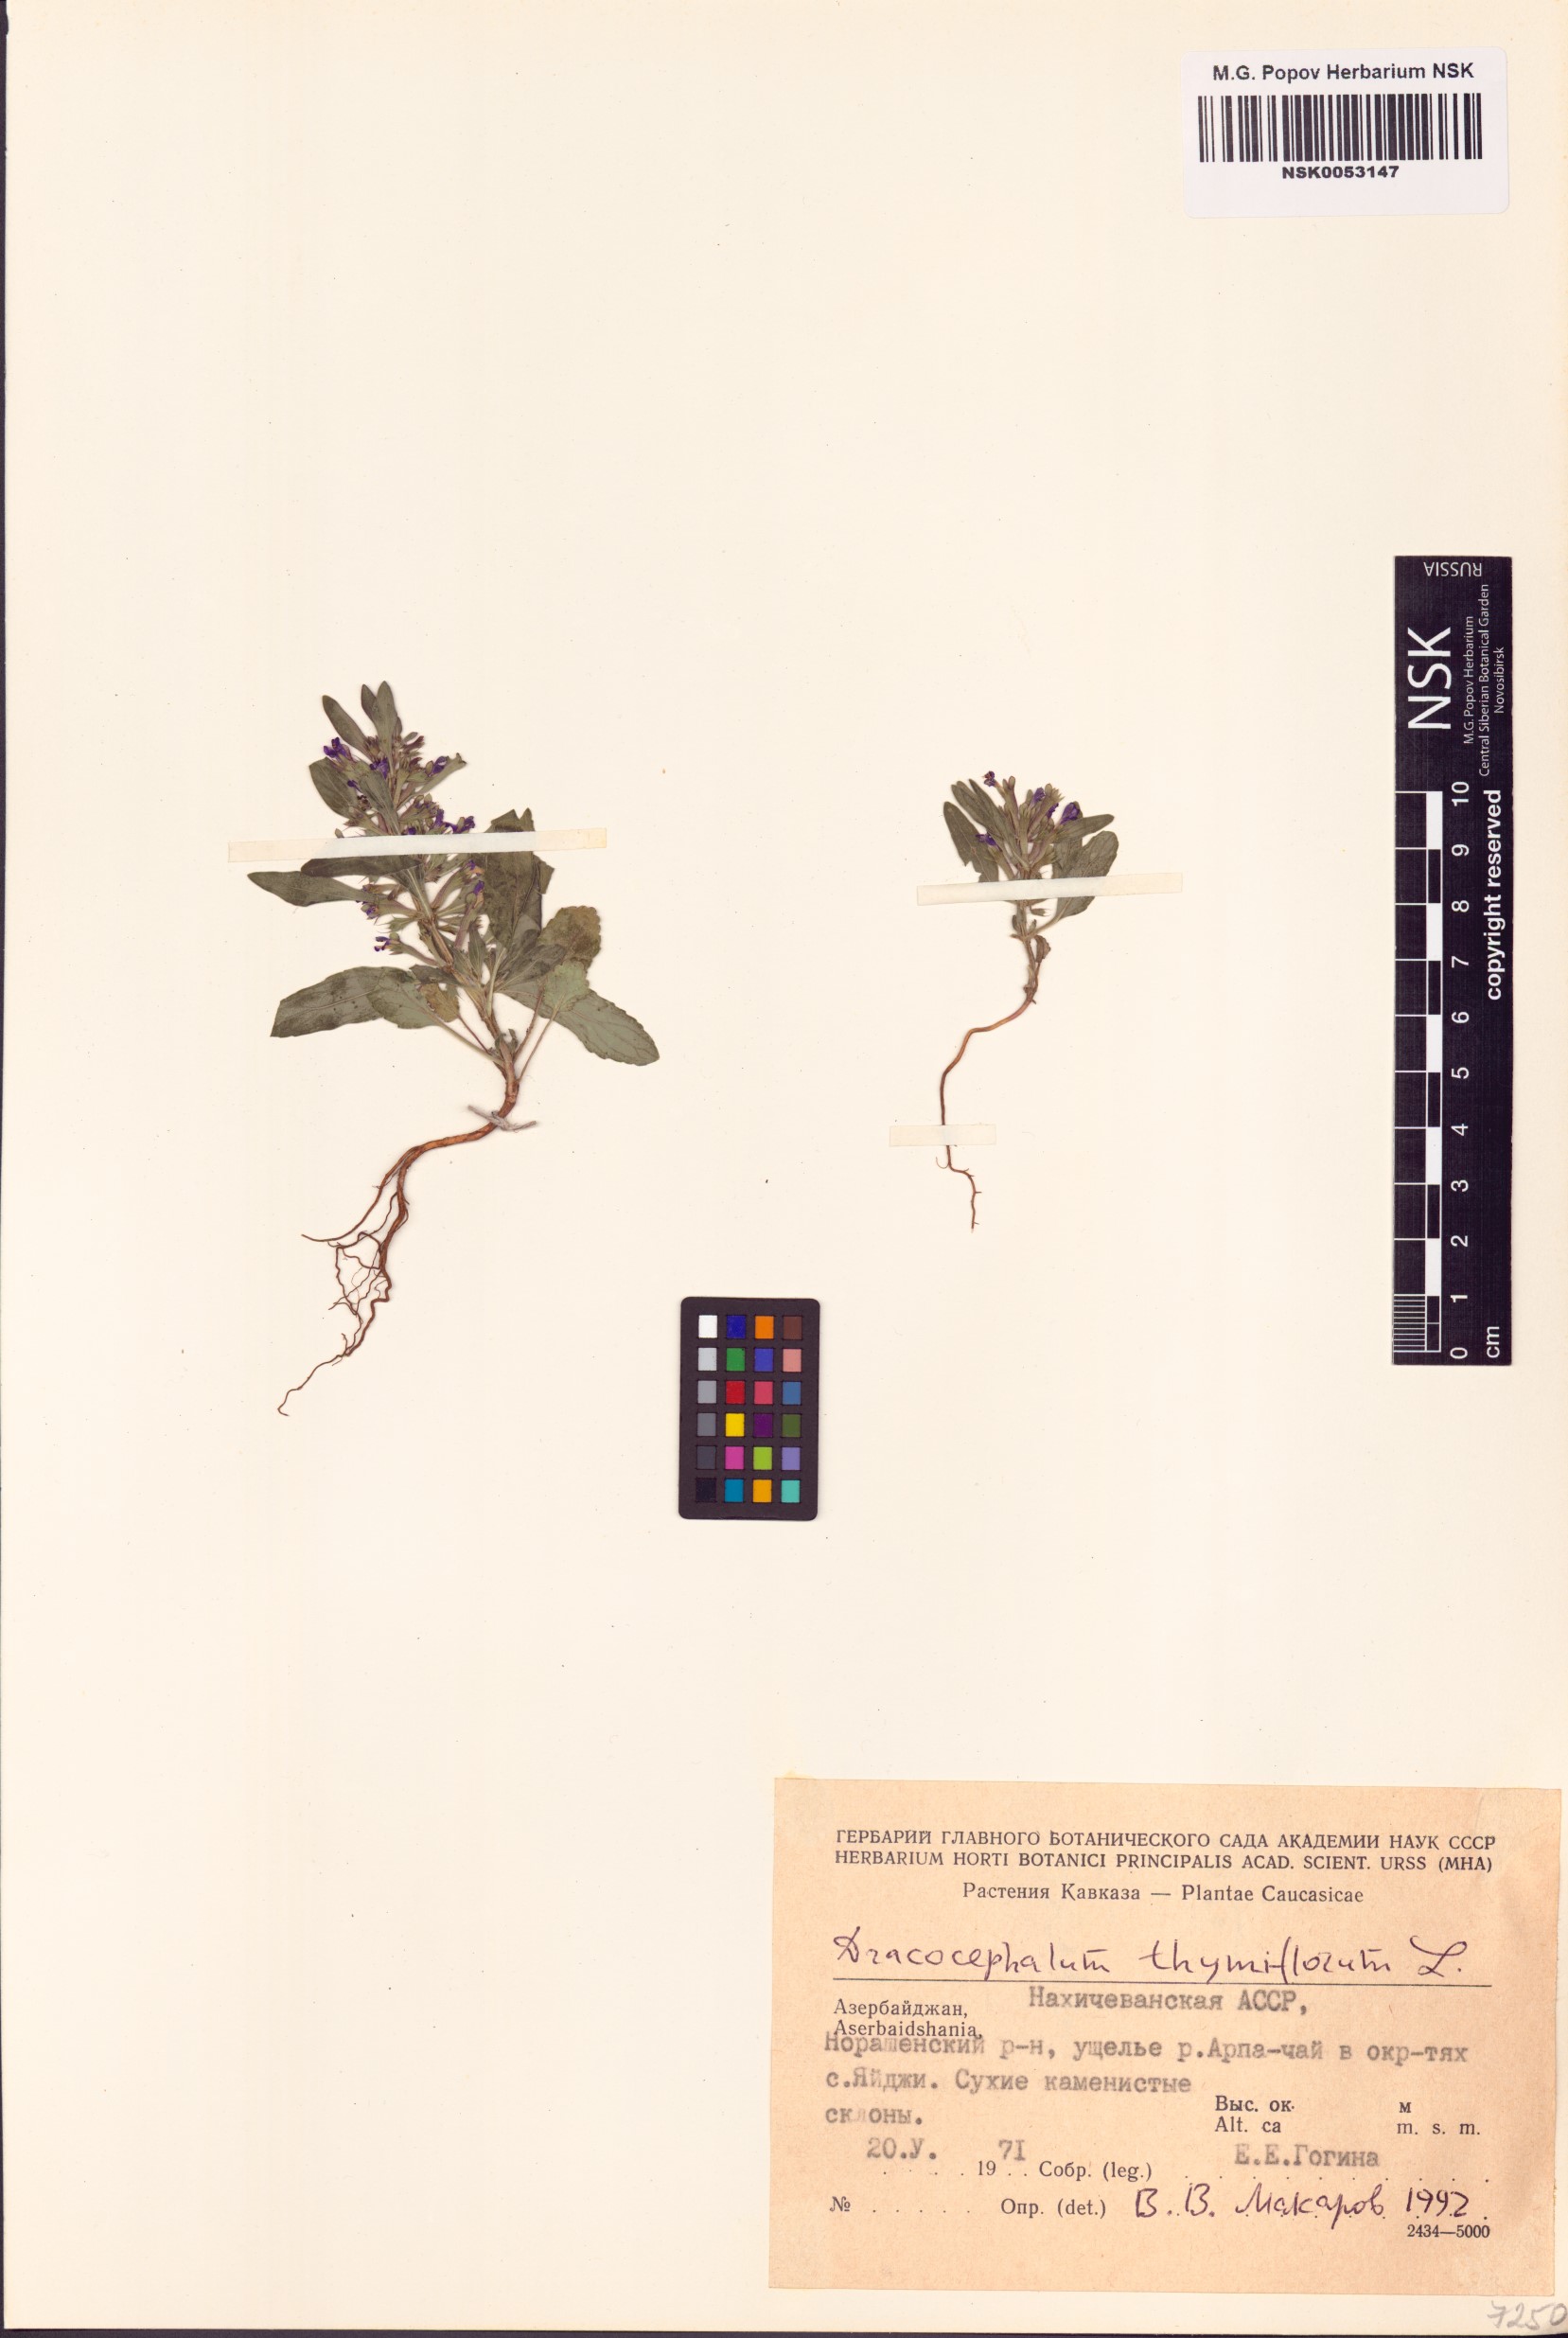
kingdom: Plantae
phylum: Tracheophyta
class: Magnoliopsida
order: Lamiales
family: Lamiaceae
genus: Dracocephalum
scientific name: Dracocephalum thymiflorum
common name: Thymeleaf dragonhead
